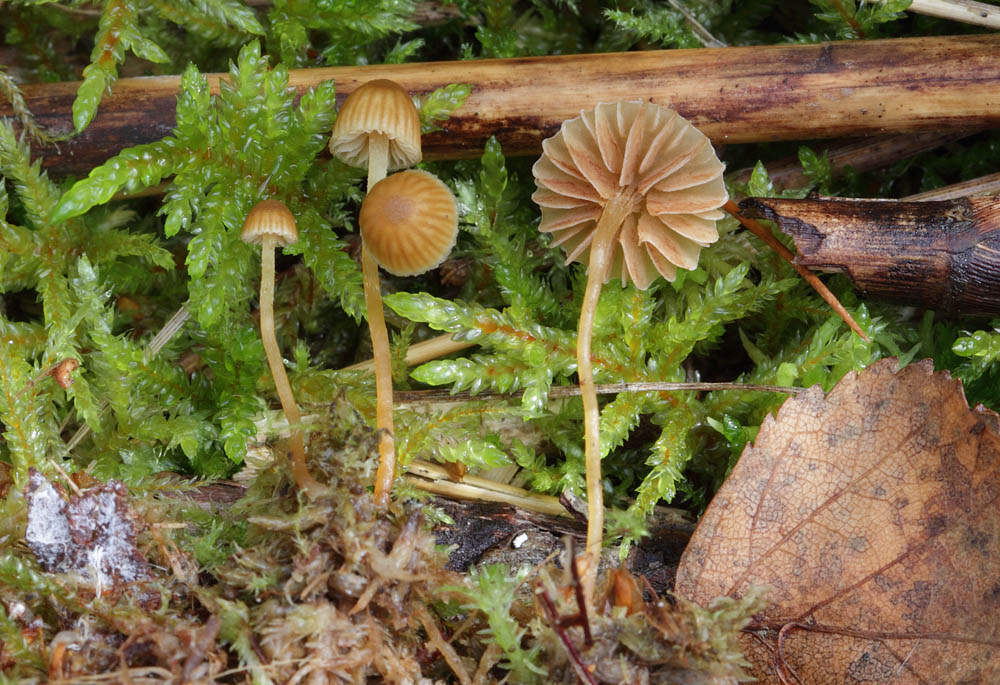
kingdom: Fungi
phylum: Basidiomycota
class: Agaricomycetes
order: Agaricales
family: Hymenogastraceae
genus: Galerina
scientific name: Galerina hypnorum
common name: mos-hjelmhat
